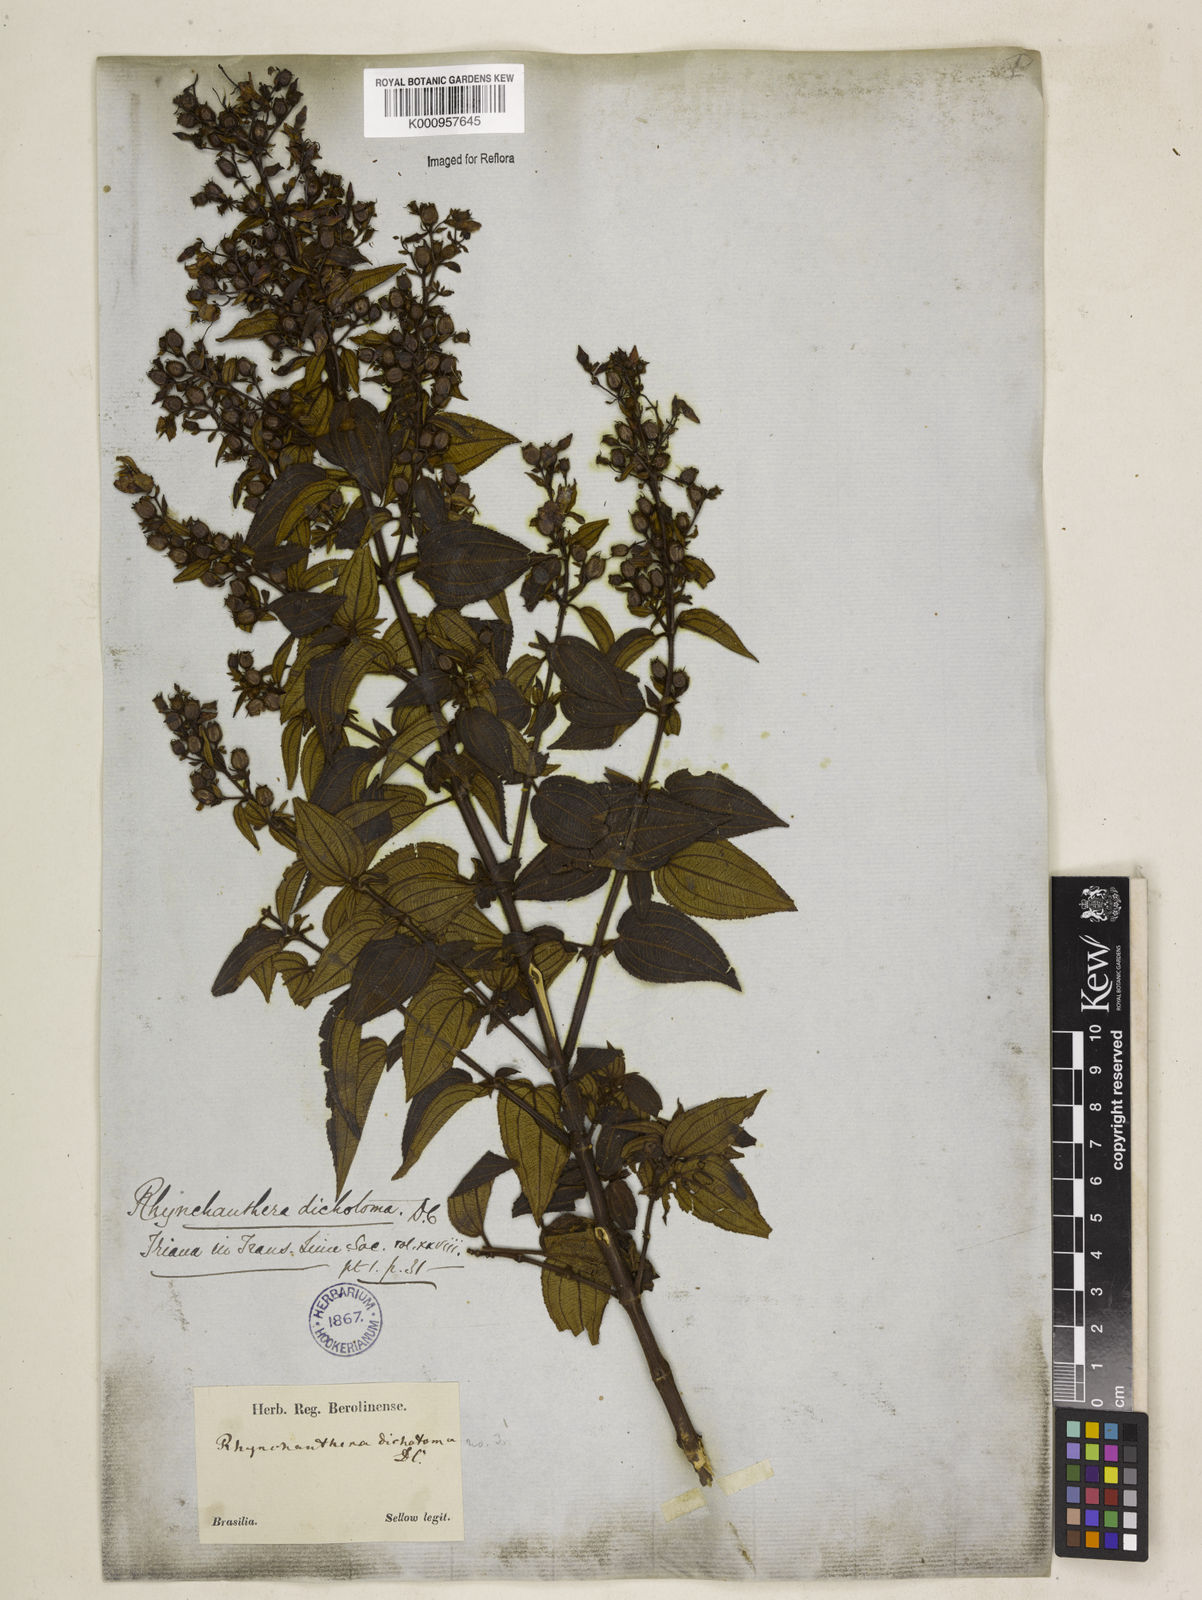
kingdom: Plantae
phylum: Tracheophyta
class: Magnoliopsida
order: Myrtales
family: Melastomataceae
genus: Rhynchanthera
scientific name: Rhynchanthera dichotoma
